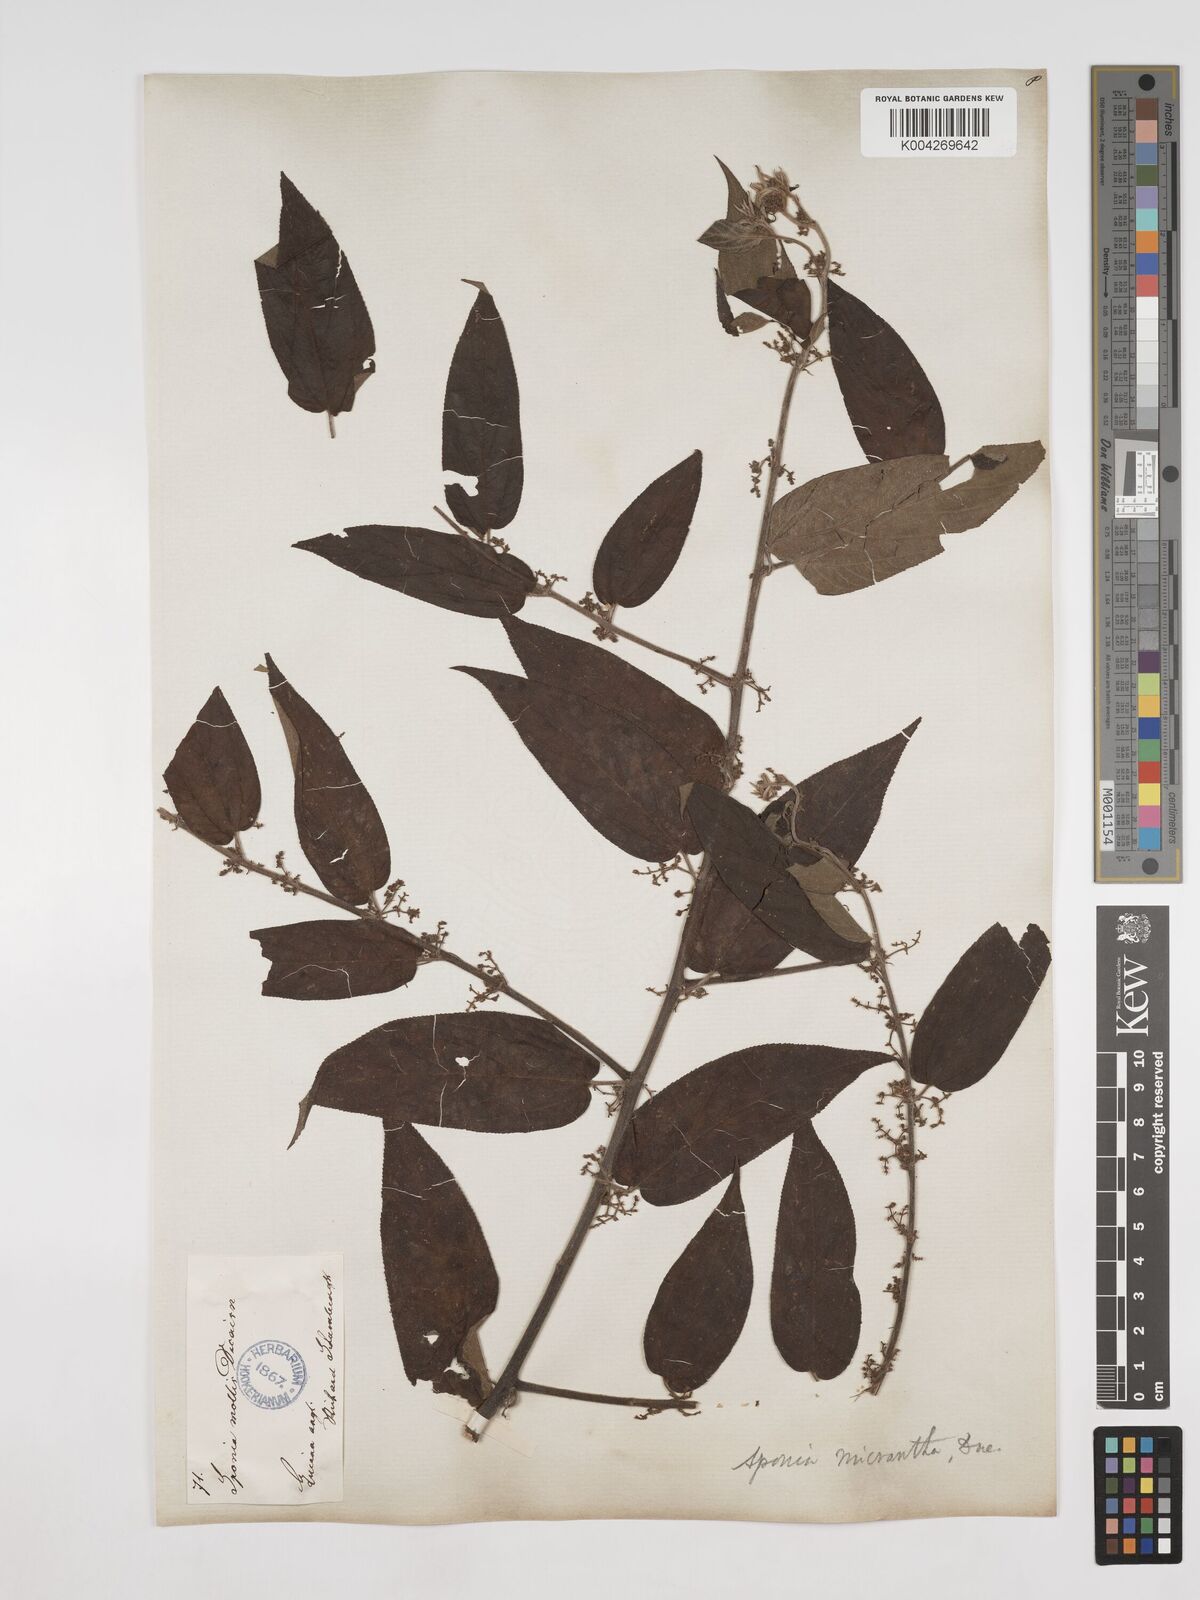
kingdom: Plantae
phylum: Tracheophyta
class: Magnoliopsida
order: Rosales
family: Cannabaceae
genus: Trema
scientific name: Trema micranthum
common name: Jamaican nettletree
